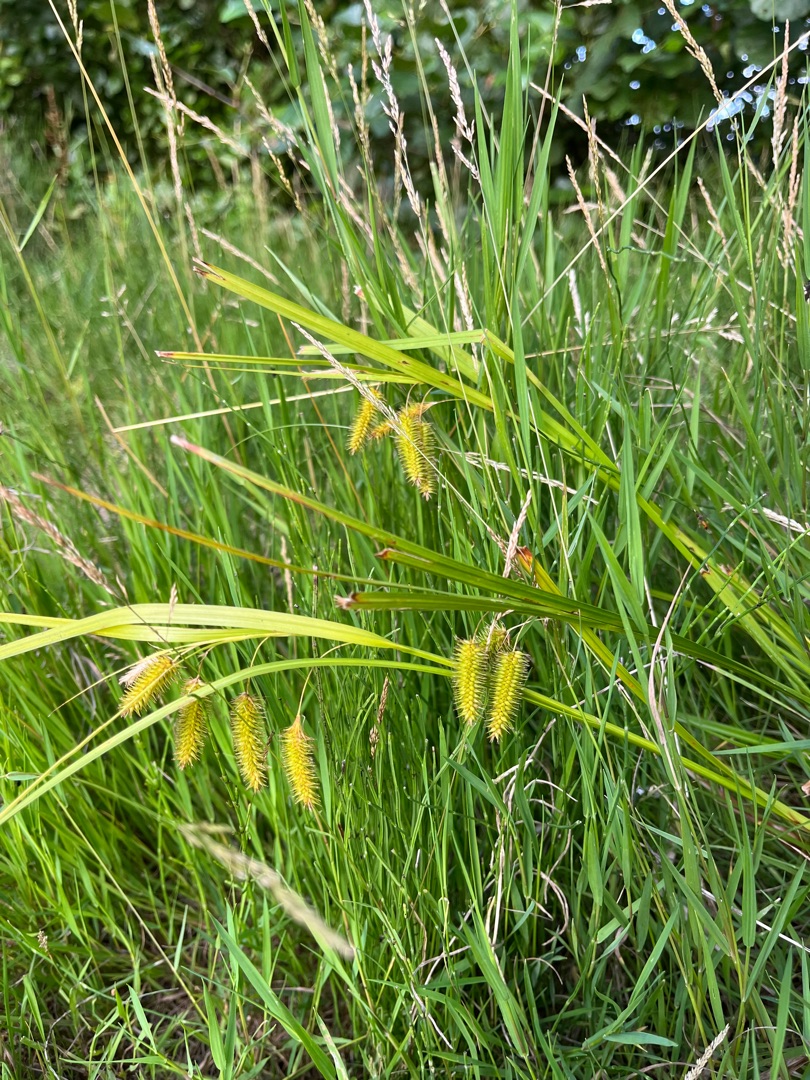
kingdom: Plantae
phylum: Tracheophyta
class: Liliopsida
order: Poales
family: Cyperaceae
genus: Carex
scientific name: Carex pseudocyperus
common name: Knippe-star
